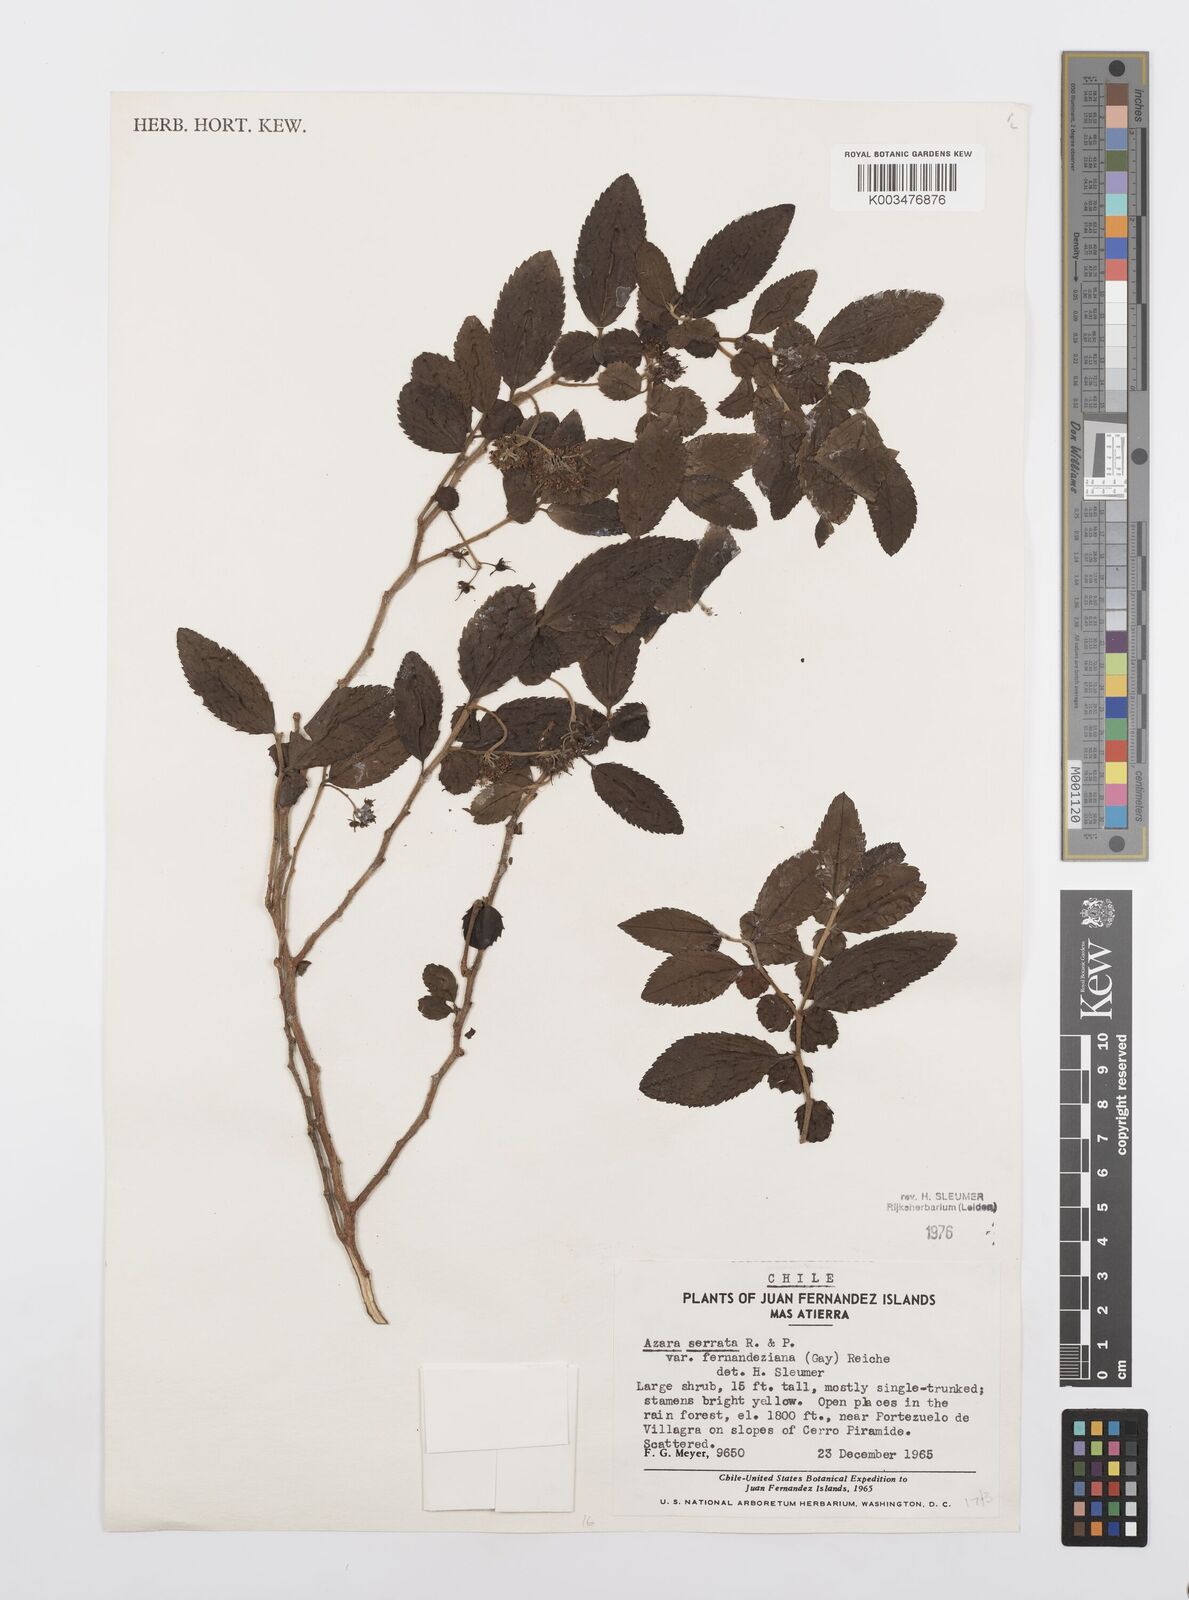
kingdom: Plantae
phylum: Tracheophyta
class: Magnoliopsida
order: Malpighiales
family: Salicaceae
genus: Azara
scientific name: Azara serrata
